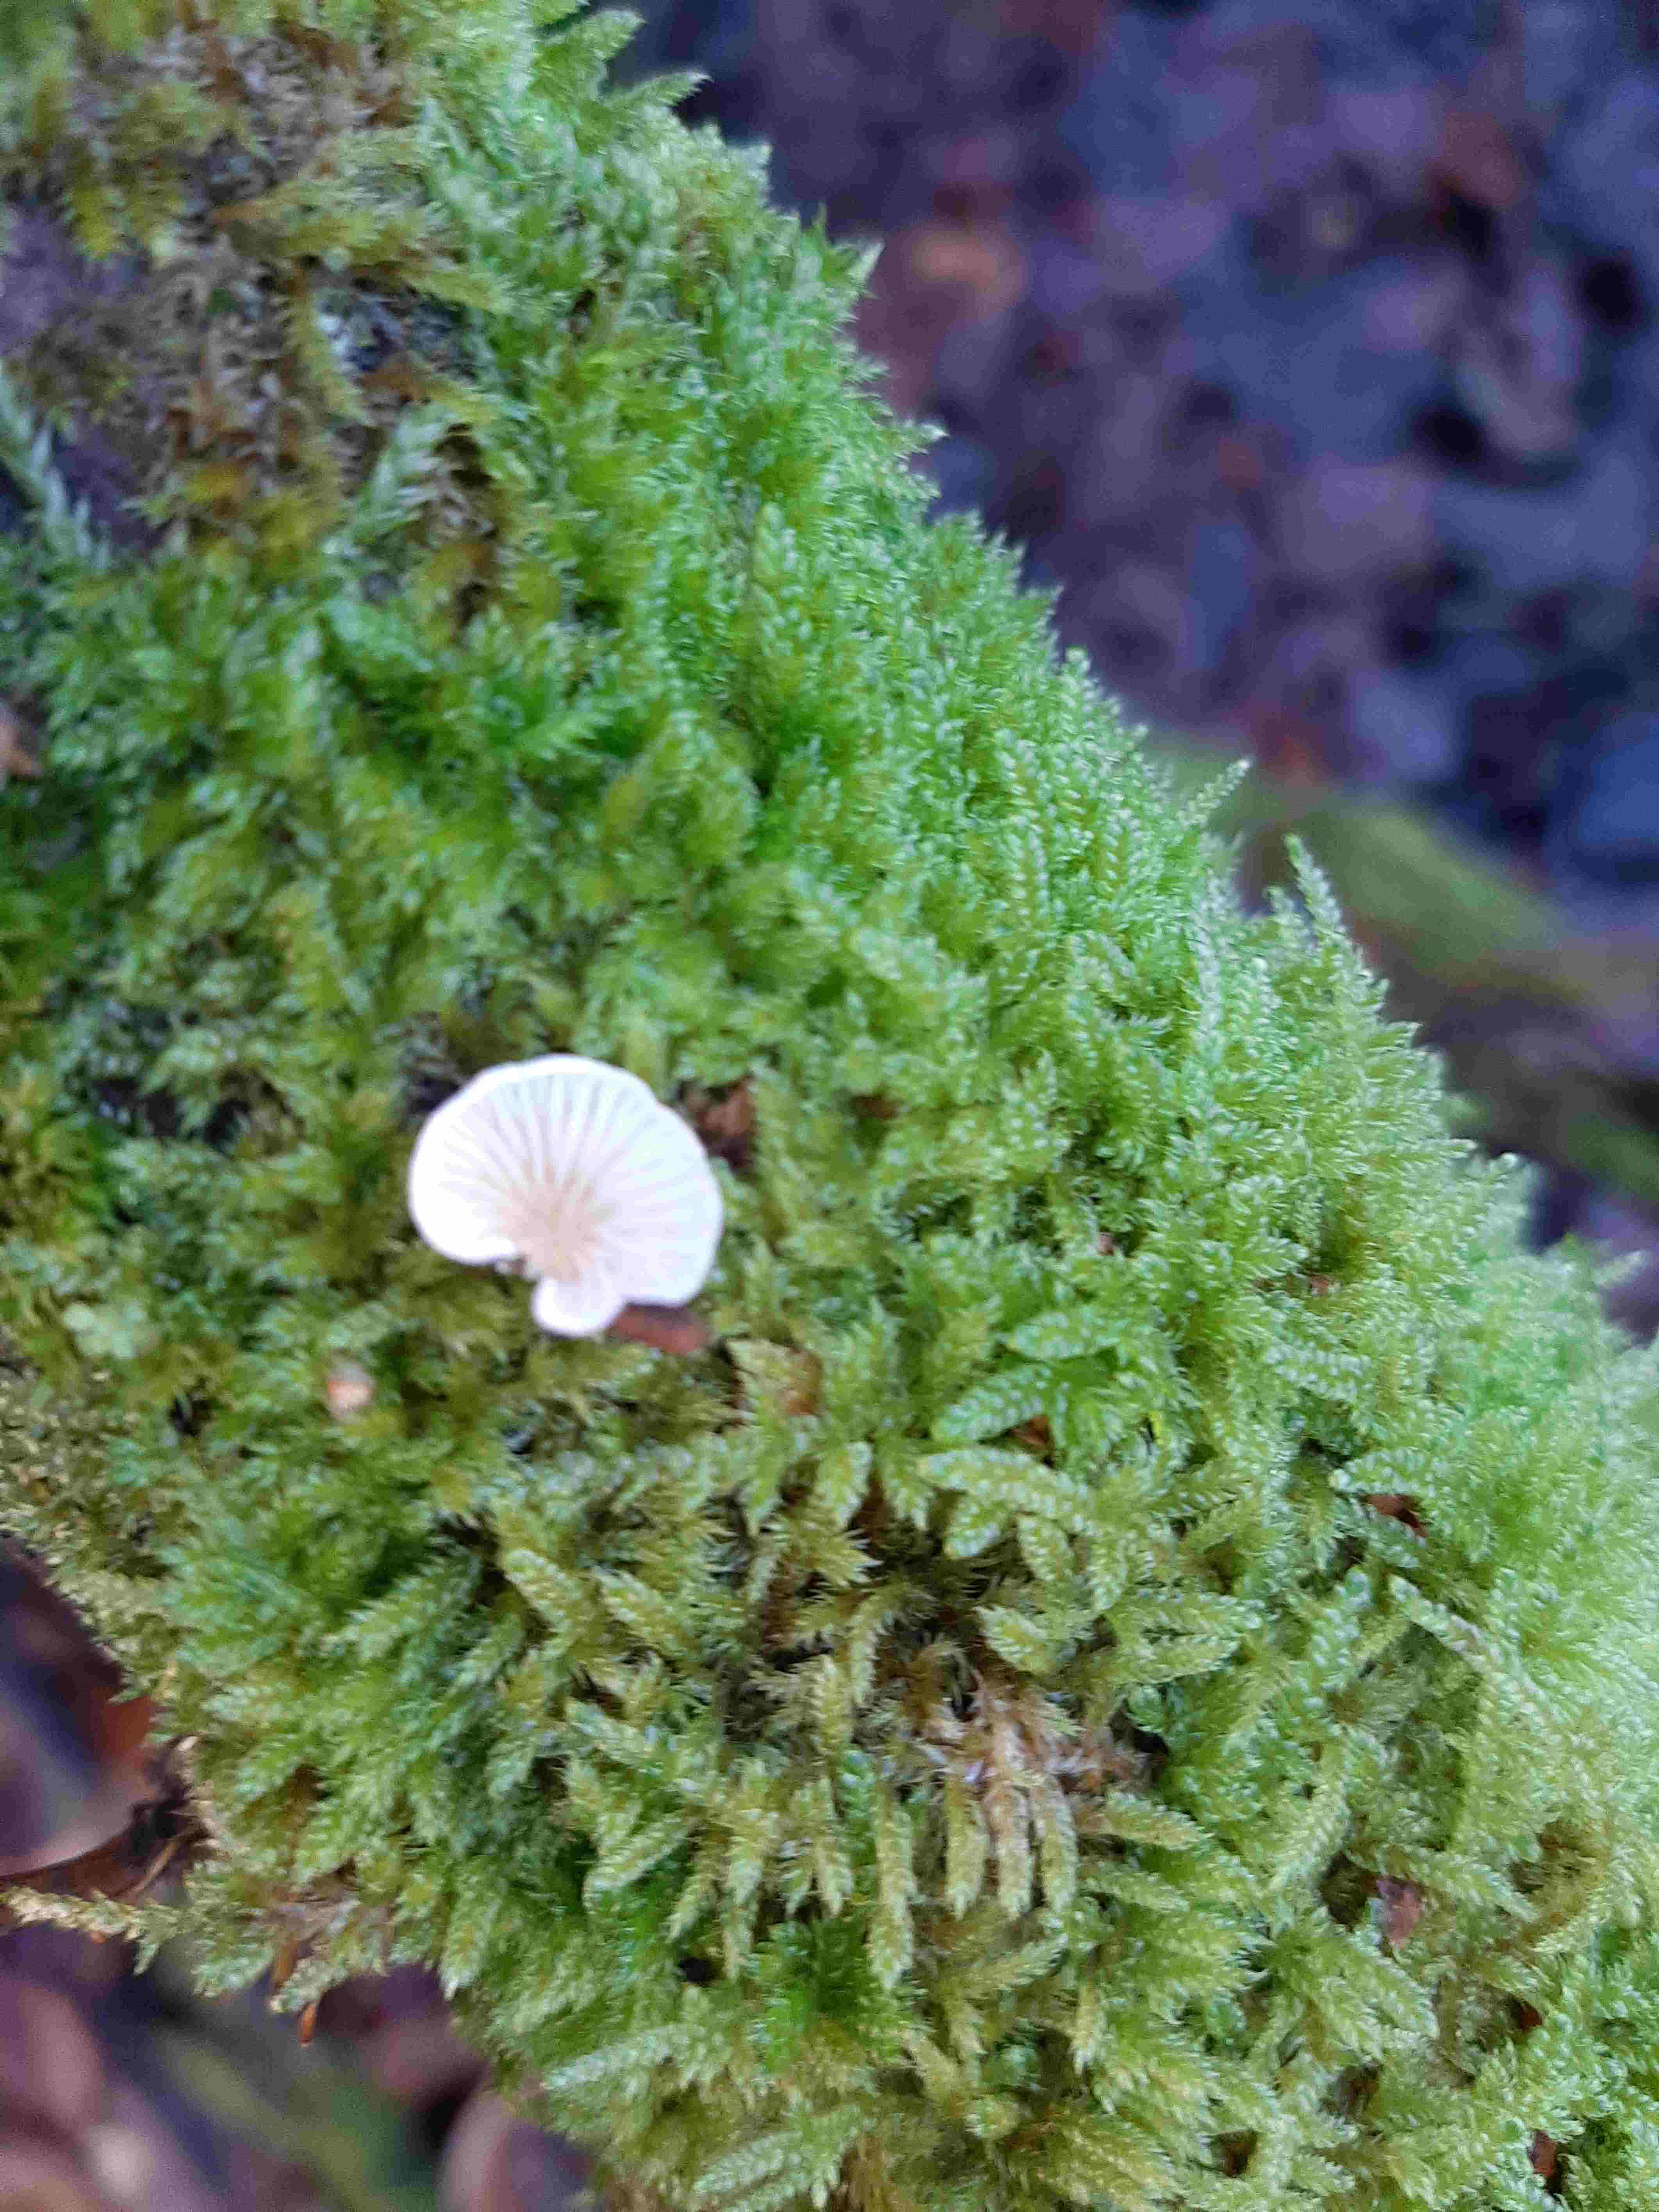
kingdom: Fungi
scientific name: Fungi
